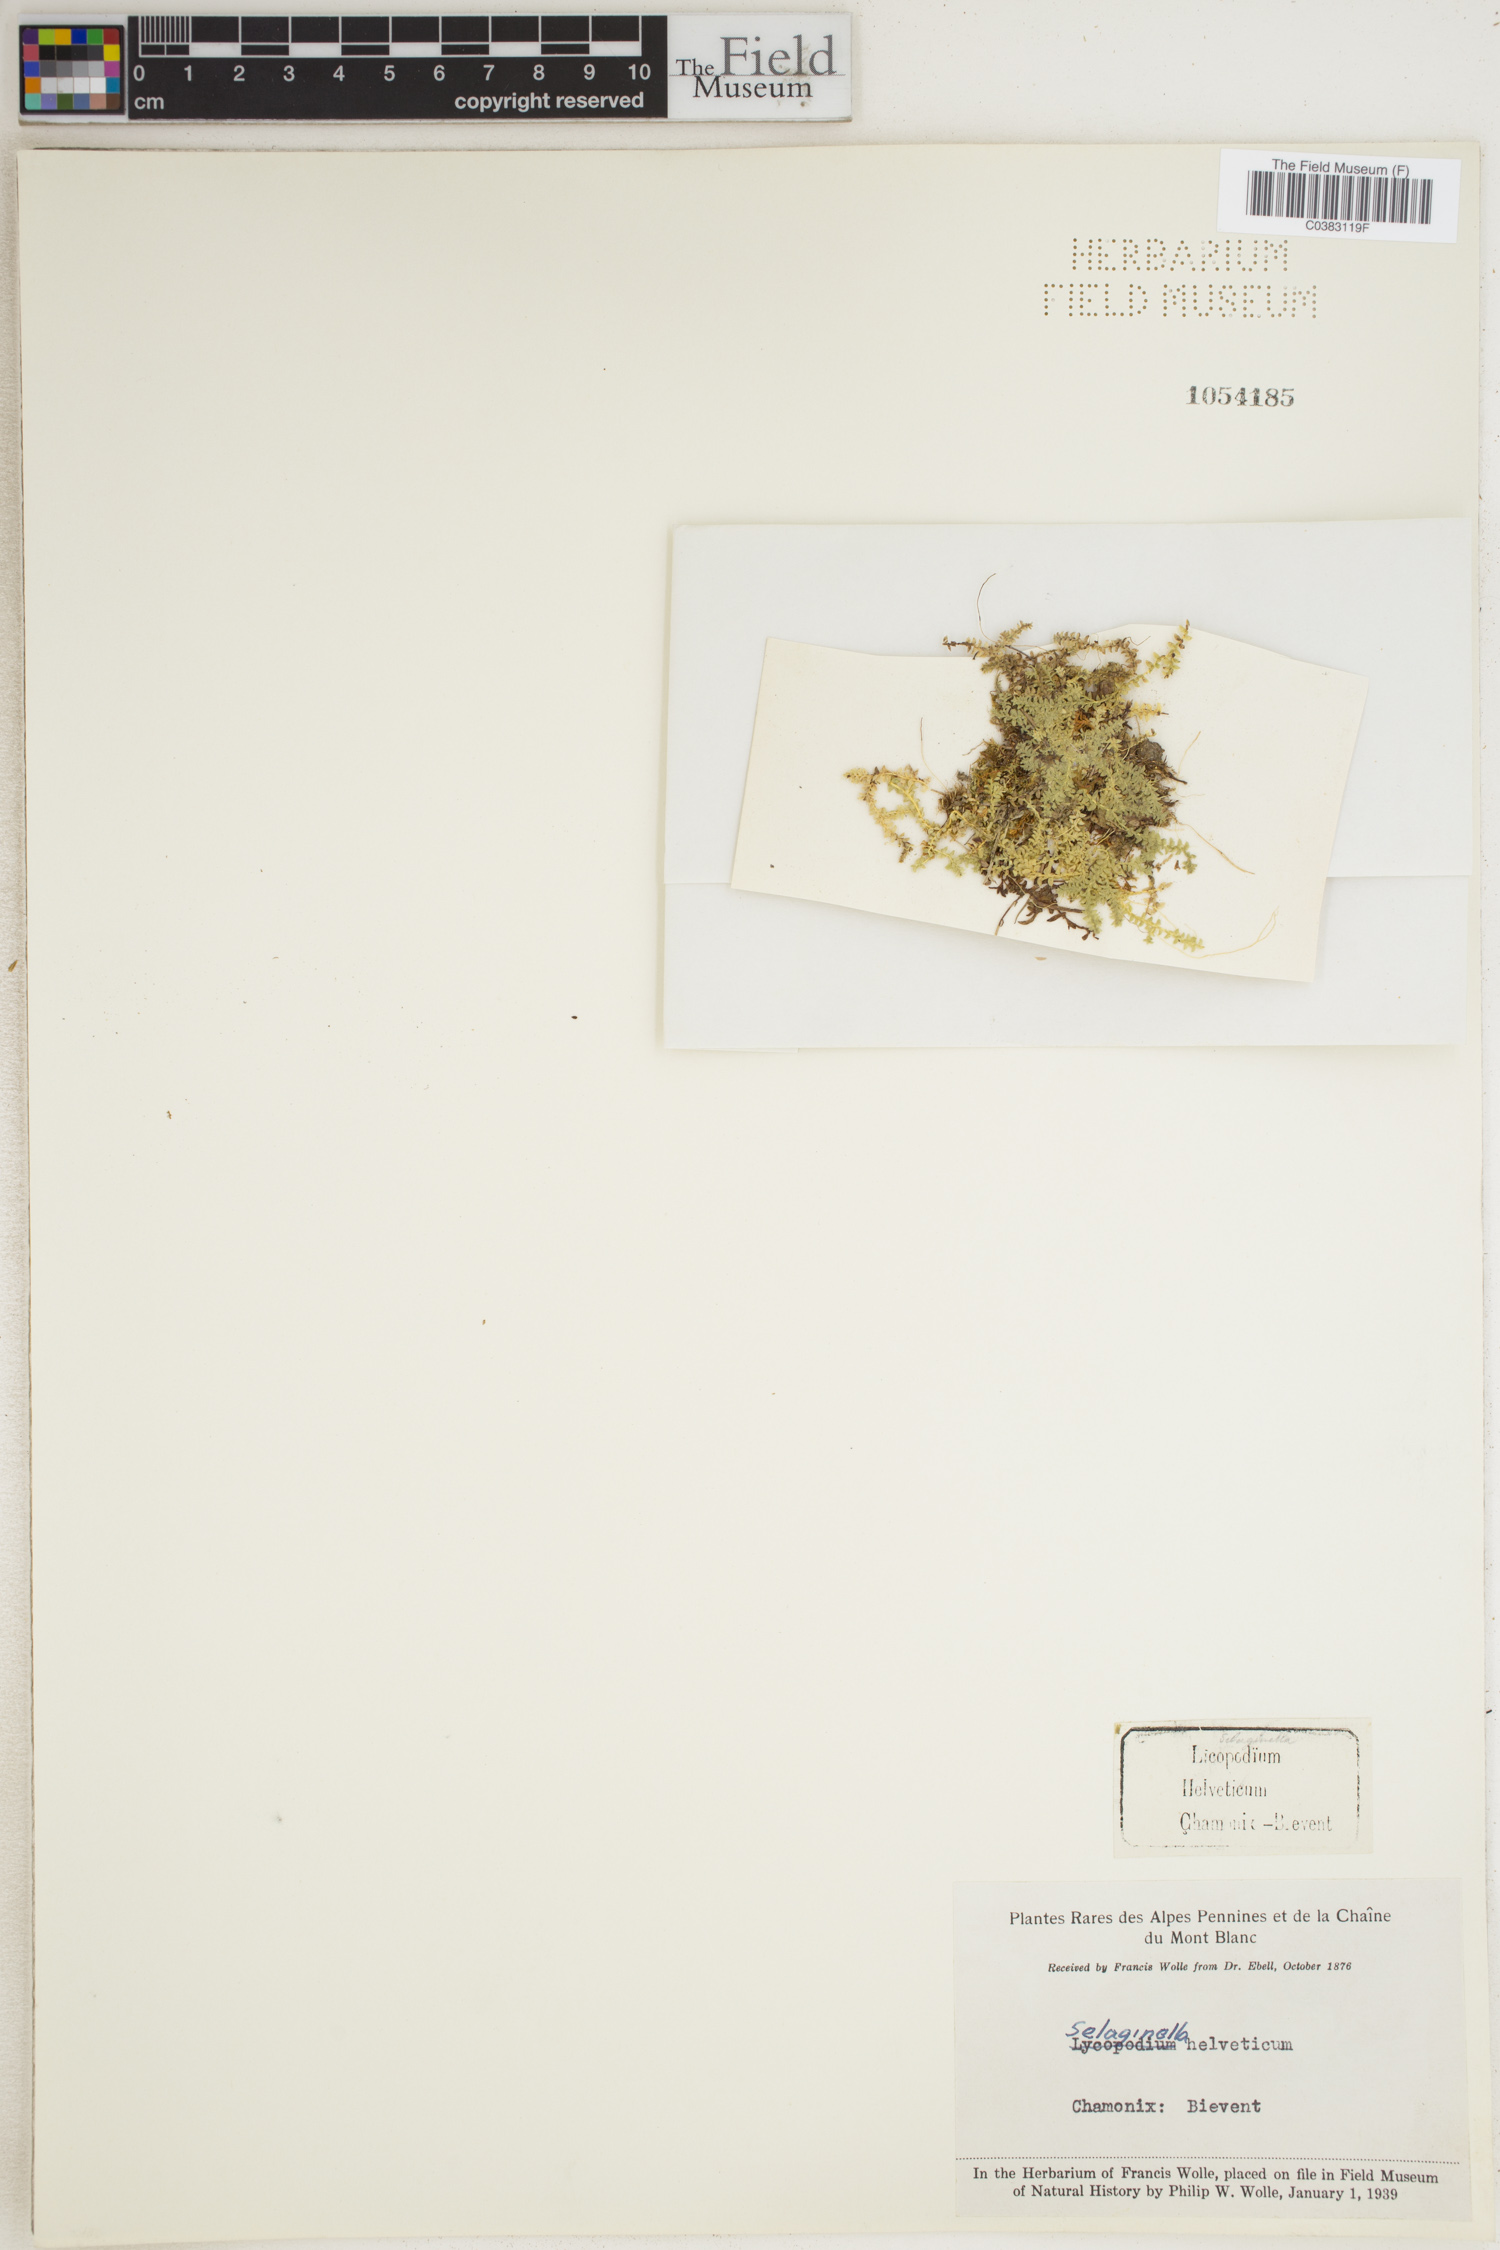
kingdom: Plantae
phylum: Tracheophyta
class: Lycopodiopsida
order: Selaginellales
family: Selaginellaceae
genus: Selaginella
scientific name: Selaginella helvetica
